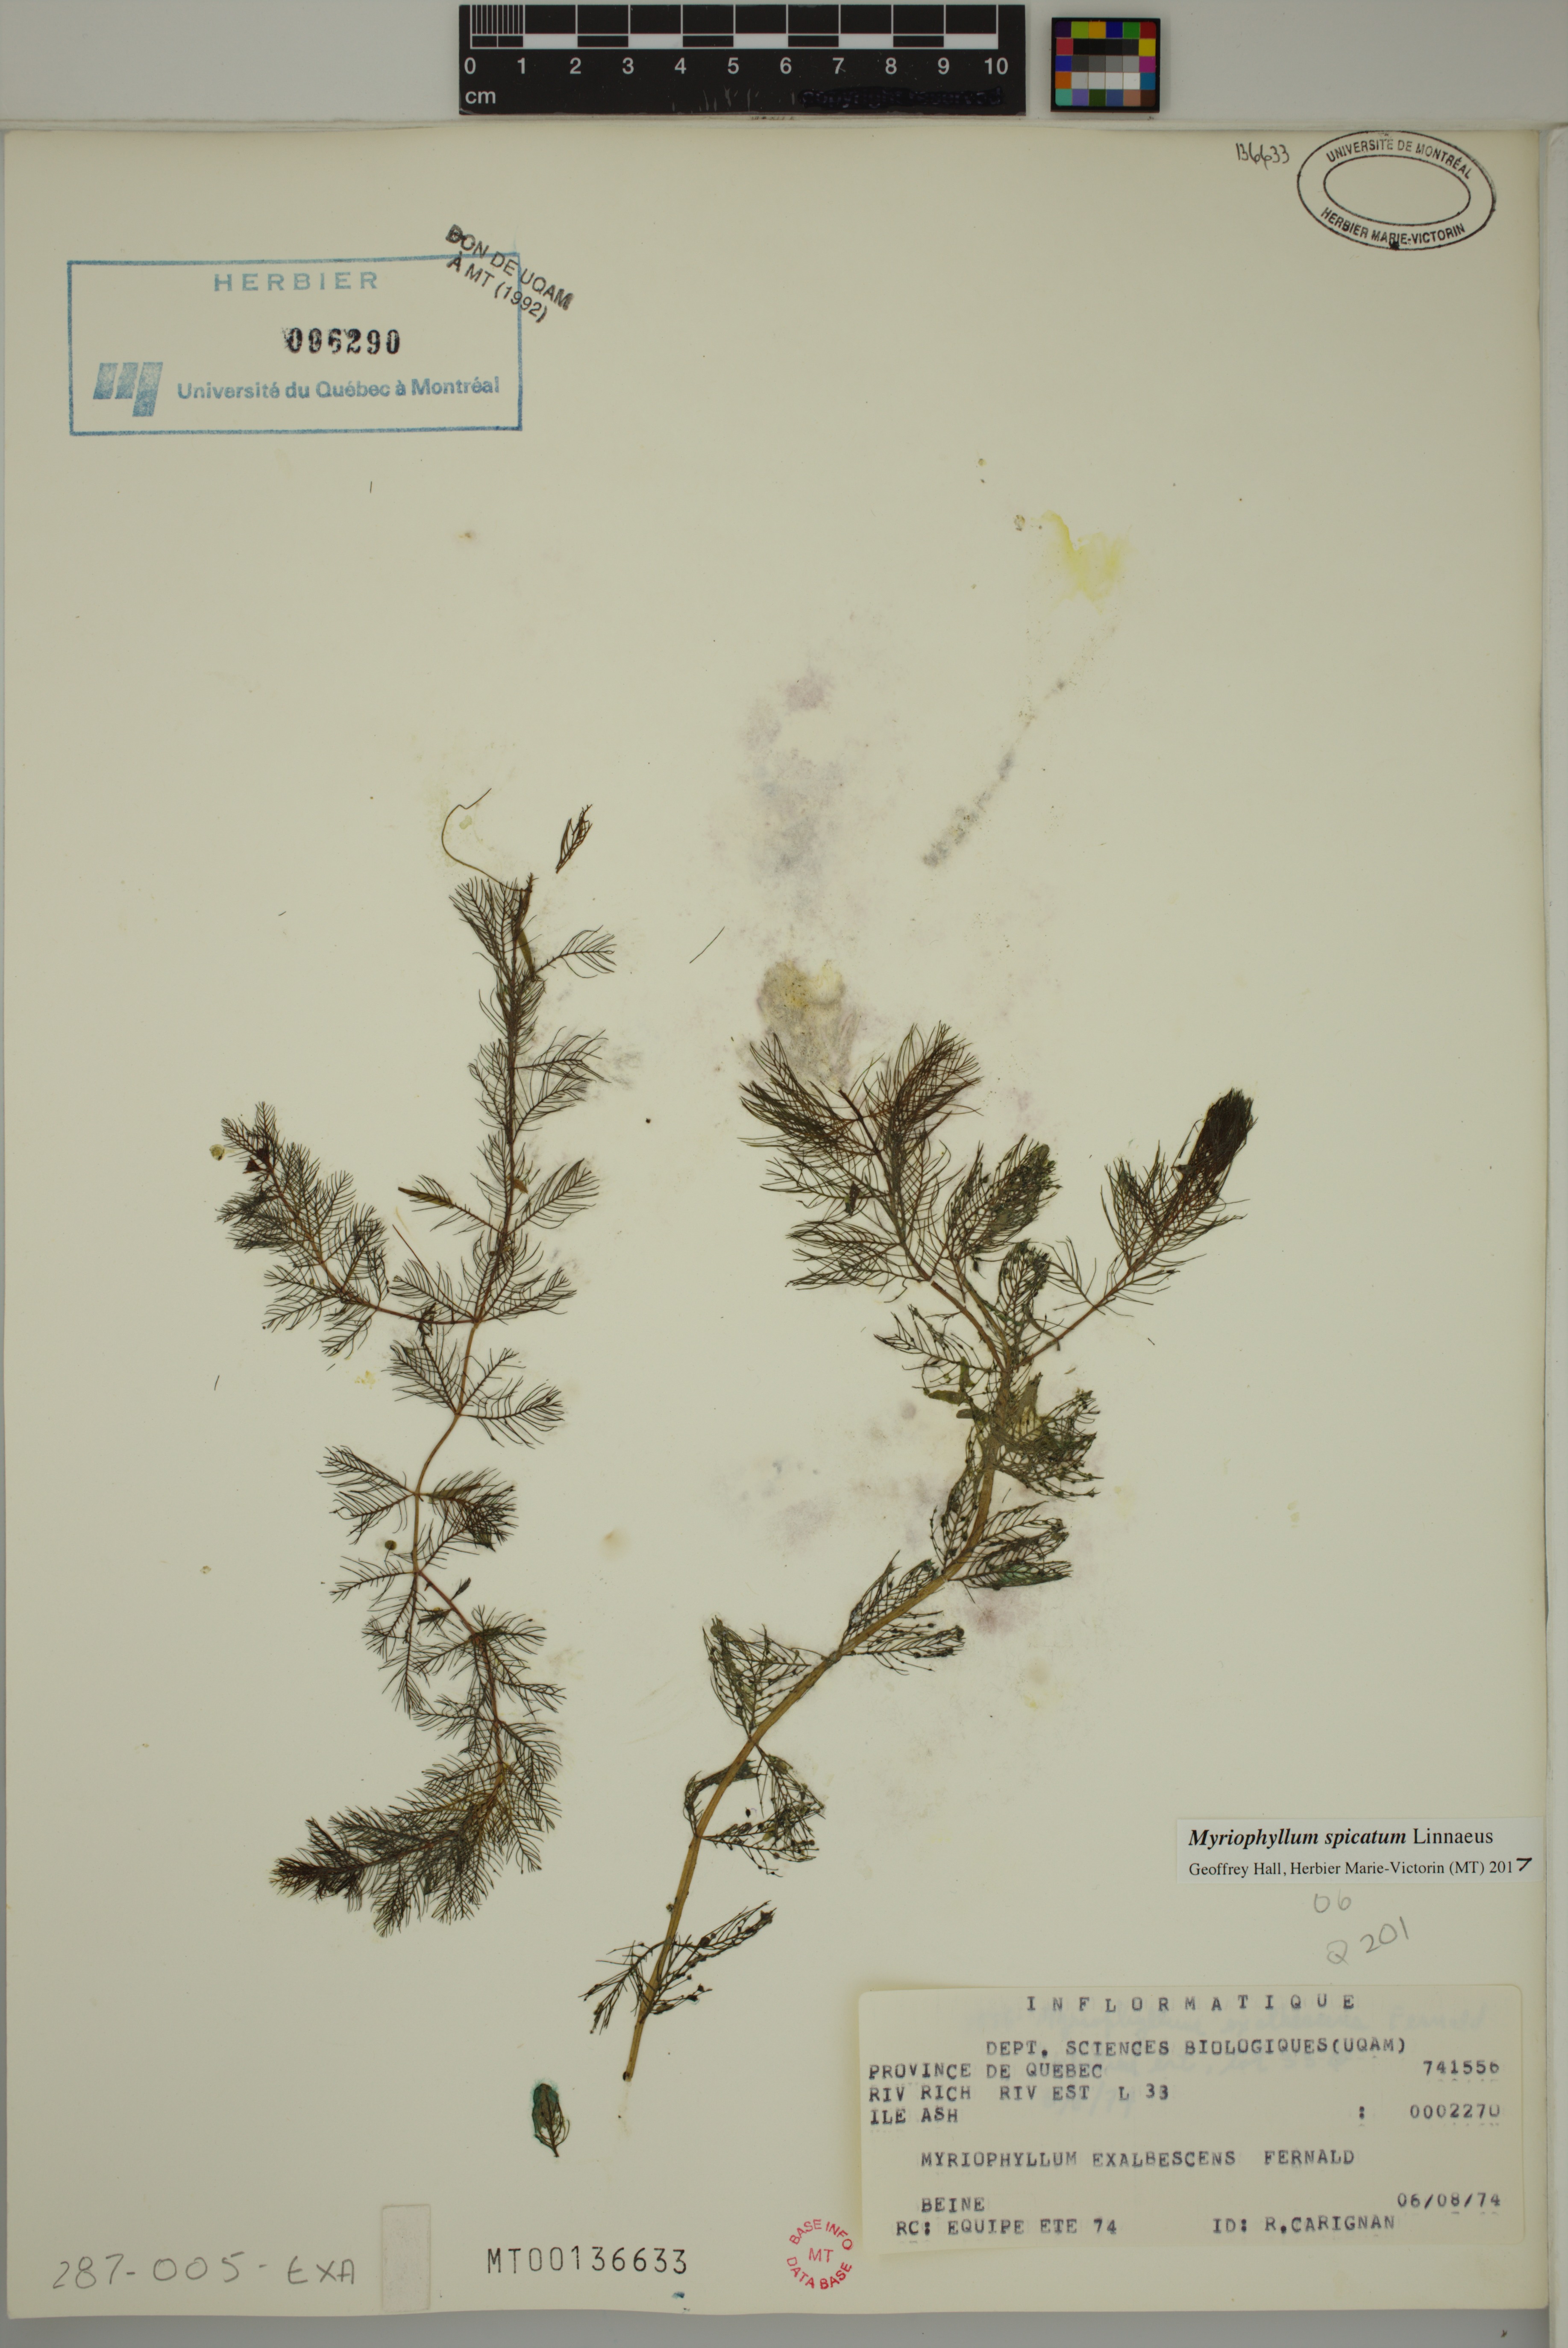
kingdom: Plantae
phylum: Tracheophyta
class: Magnoliopsida
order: Saxifragales
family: Haloragaceae
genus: Myriophyllum
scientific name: Myriophyllum spicatum
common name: Spiked water-milfoil
